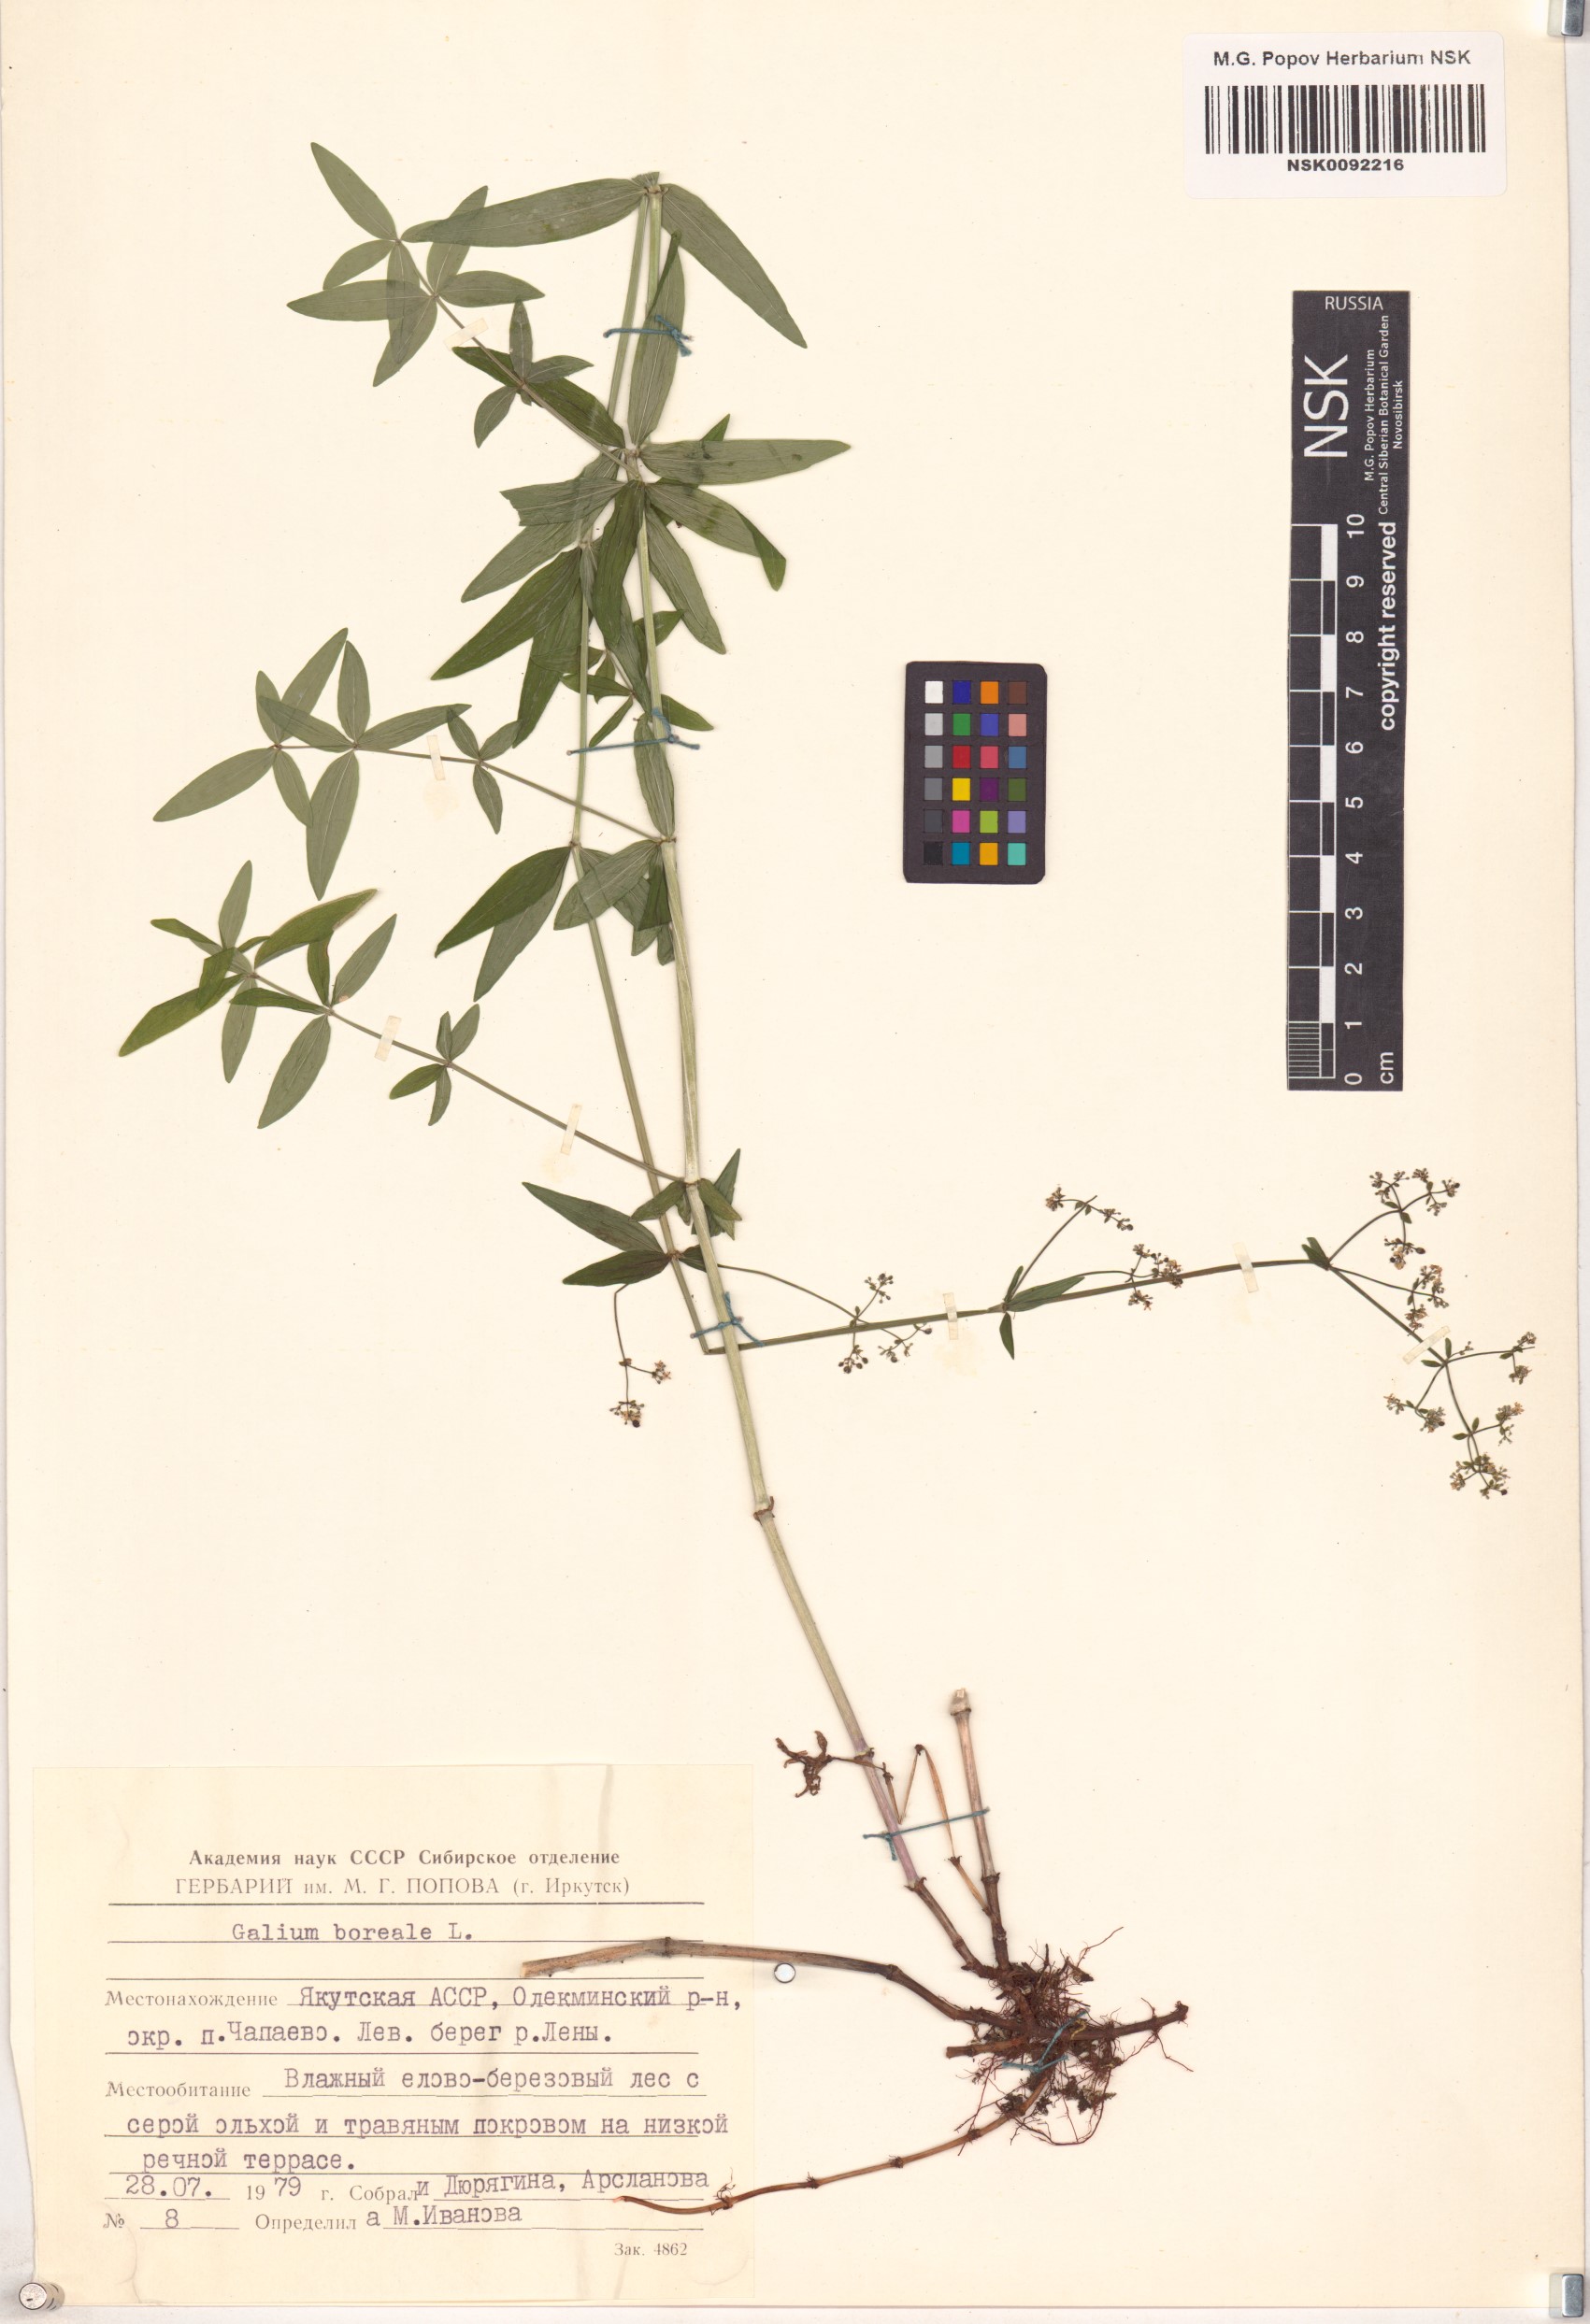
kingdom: Plantae
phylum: Tracheophyta
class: Magnoliopsida
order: Gentianales
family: Rubiaceae
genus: Galium
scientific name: Galium boreale
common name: Northern bedstraw
